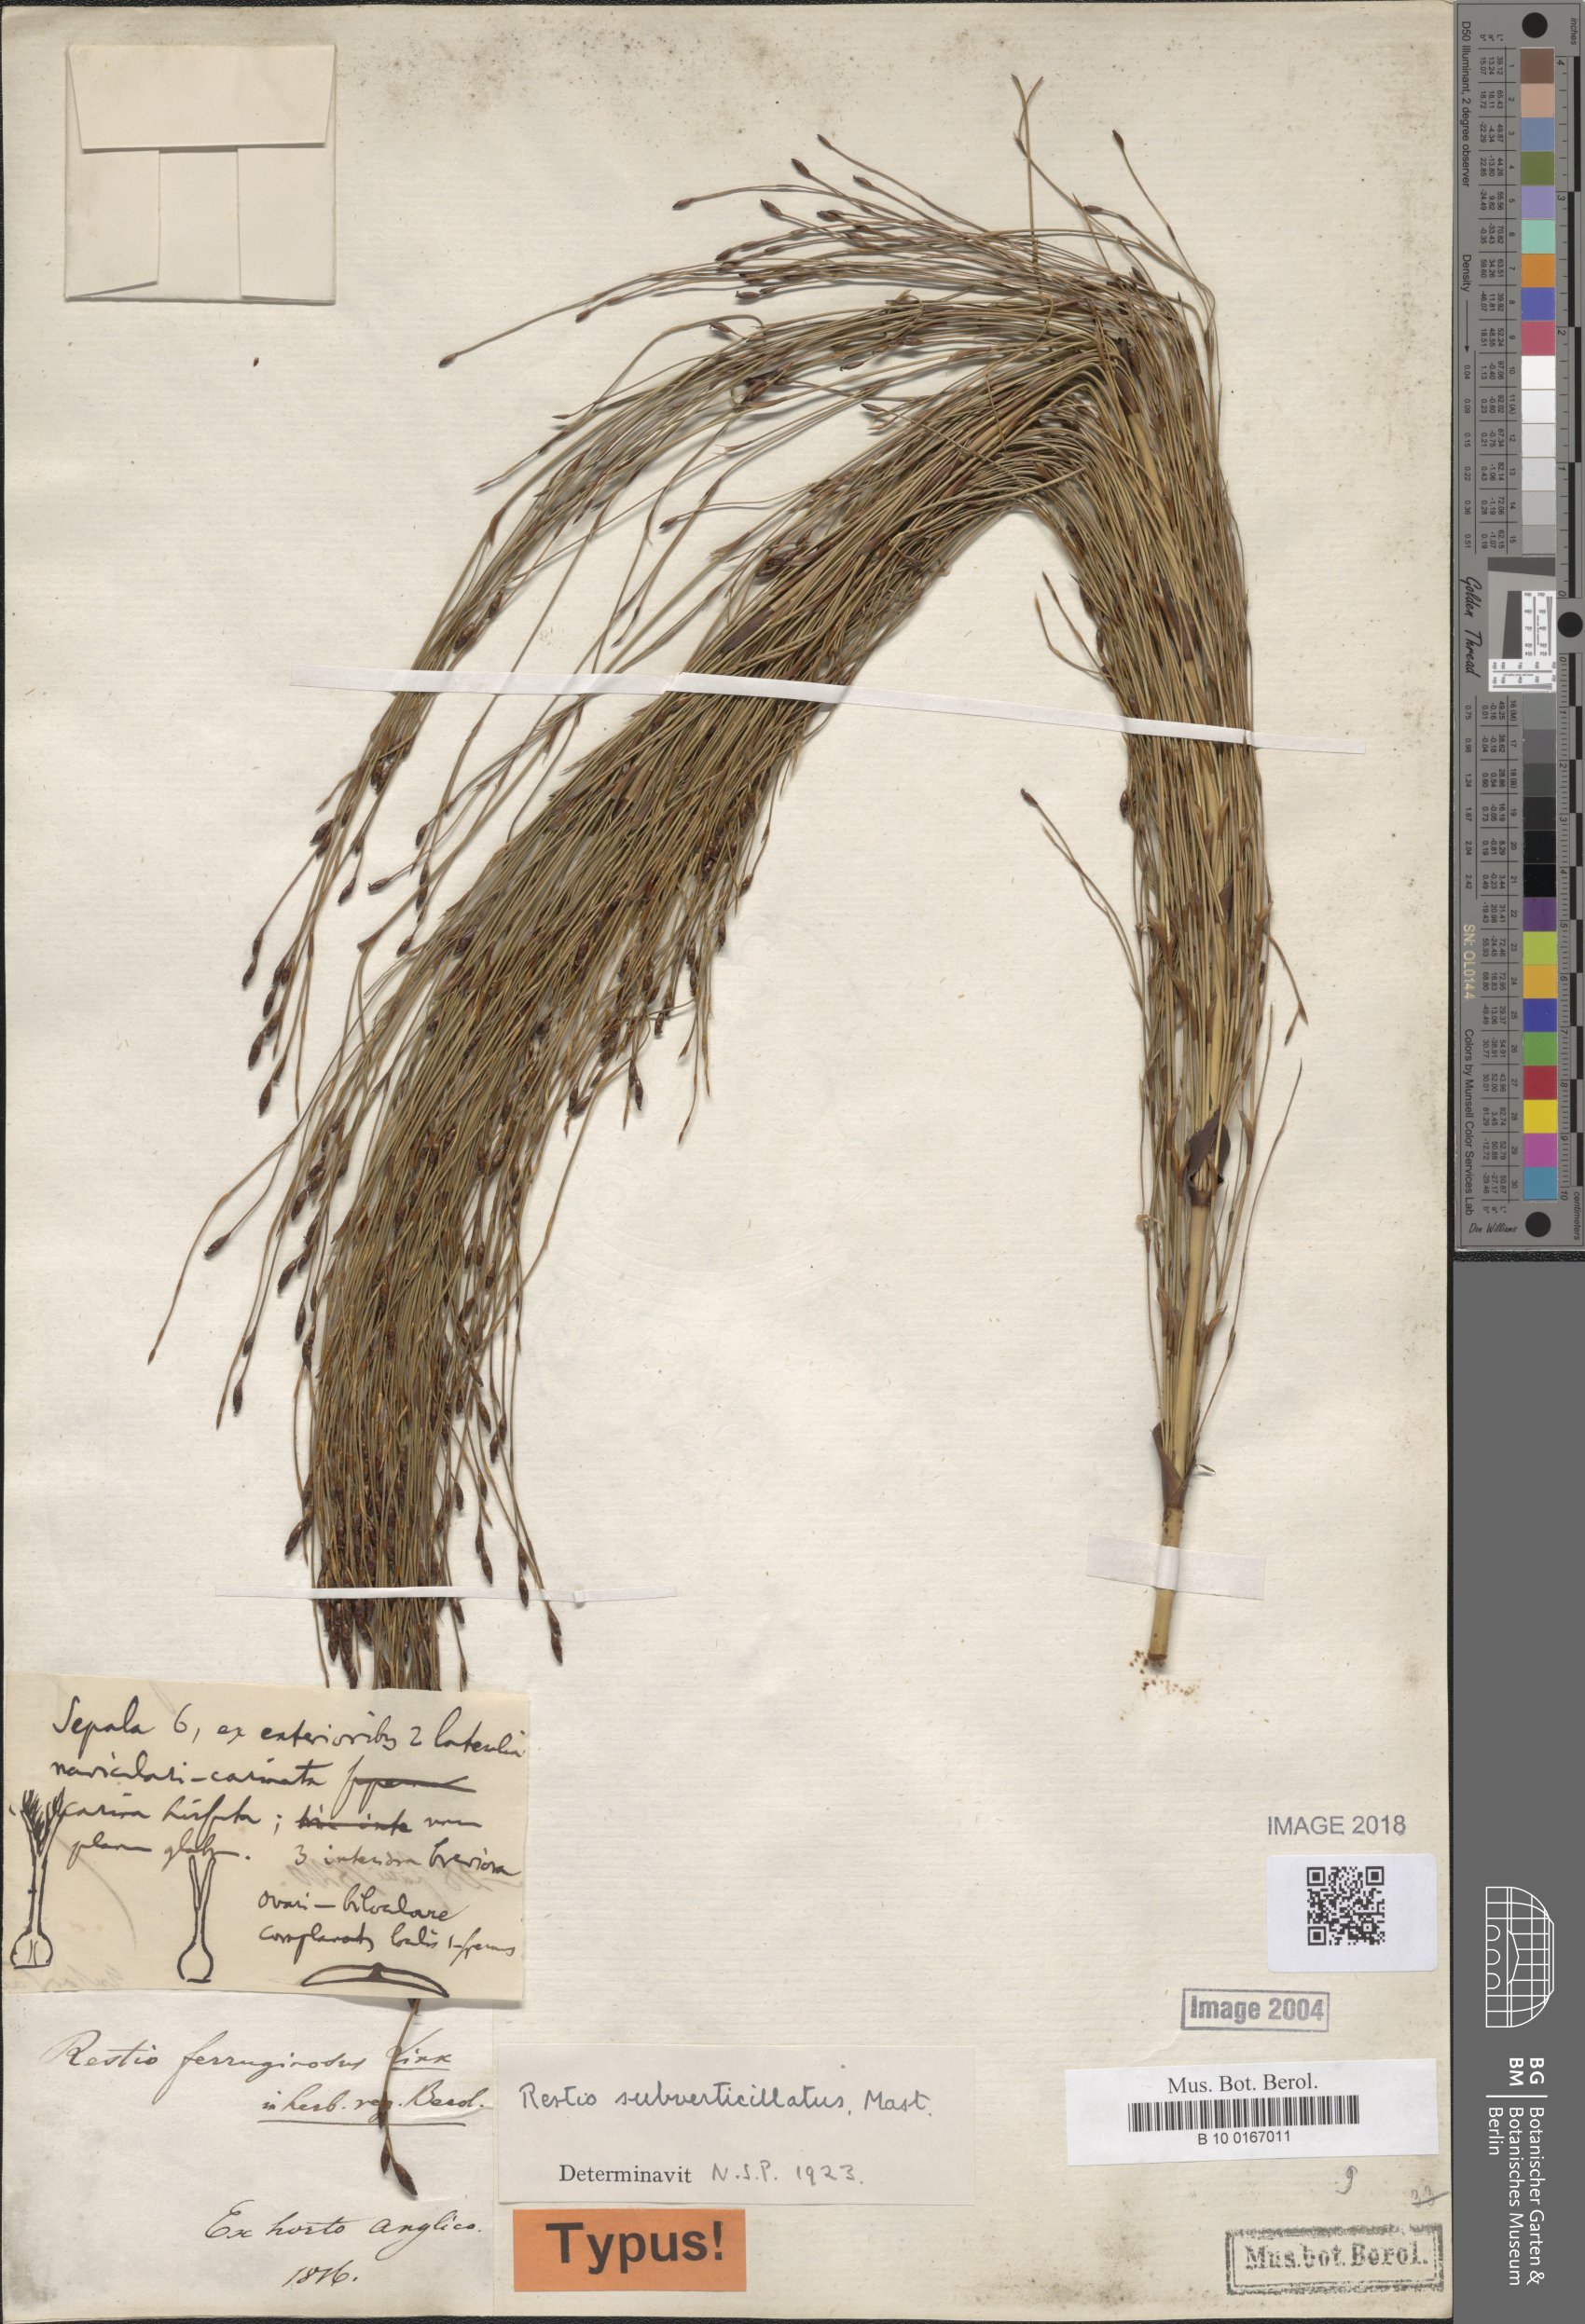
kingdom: Plantae
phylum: Tracheophyta
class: Liliopsida
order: Poales
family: Restionaceae
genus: Restio
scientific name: Restio subverticillatus
